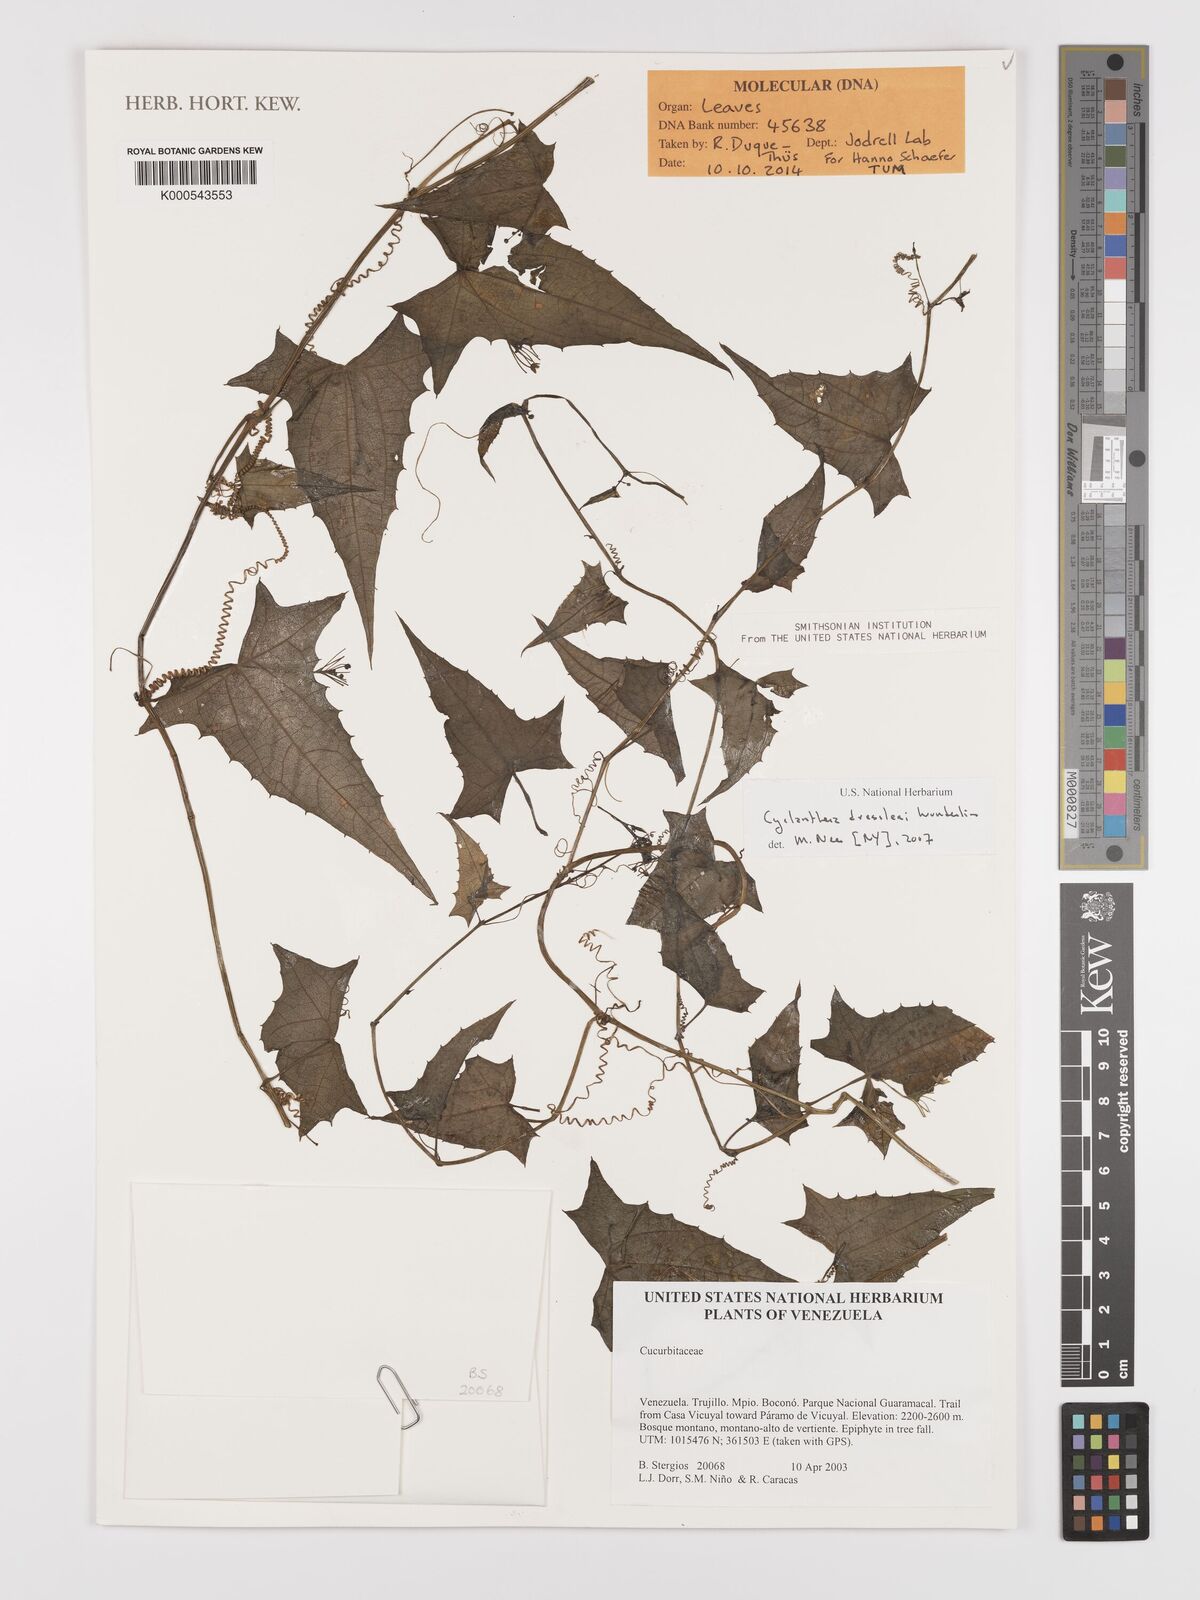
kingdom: Plantae
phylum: Tracheophyta
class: Magnoliopsida
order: Cucurbitales
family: Cucurbitaceae
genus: Cyclanthera
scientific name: Cyclanthera dressleri
